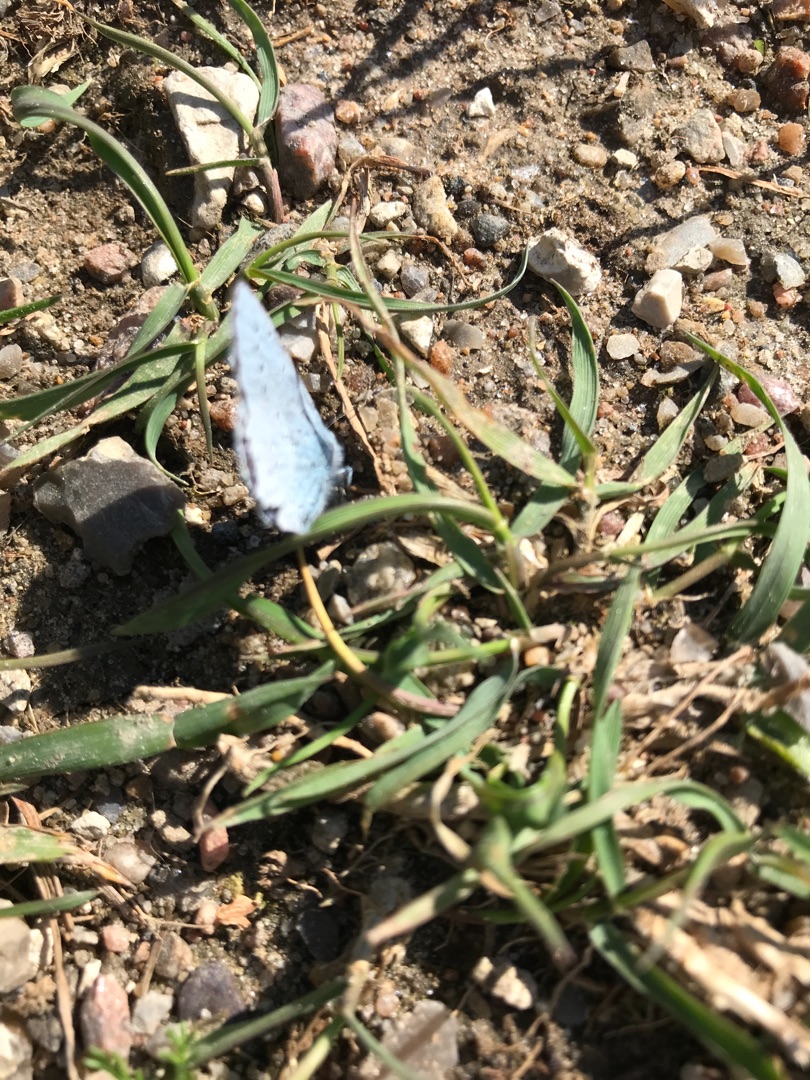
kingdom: Animalia
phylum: Arthropoda
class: Insecta
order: Lepidoptera
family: Lycaenidae
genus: Celastrina
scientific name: Celastrina argiolus
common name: Skovblåfugl
